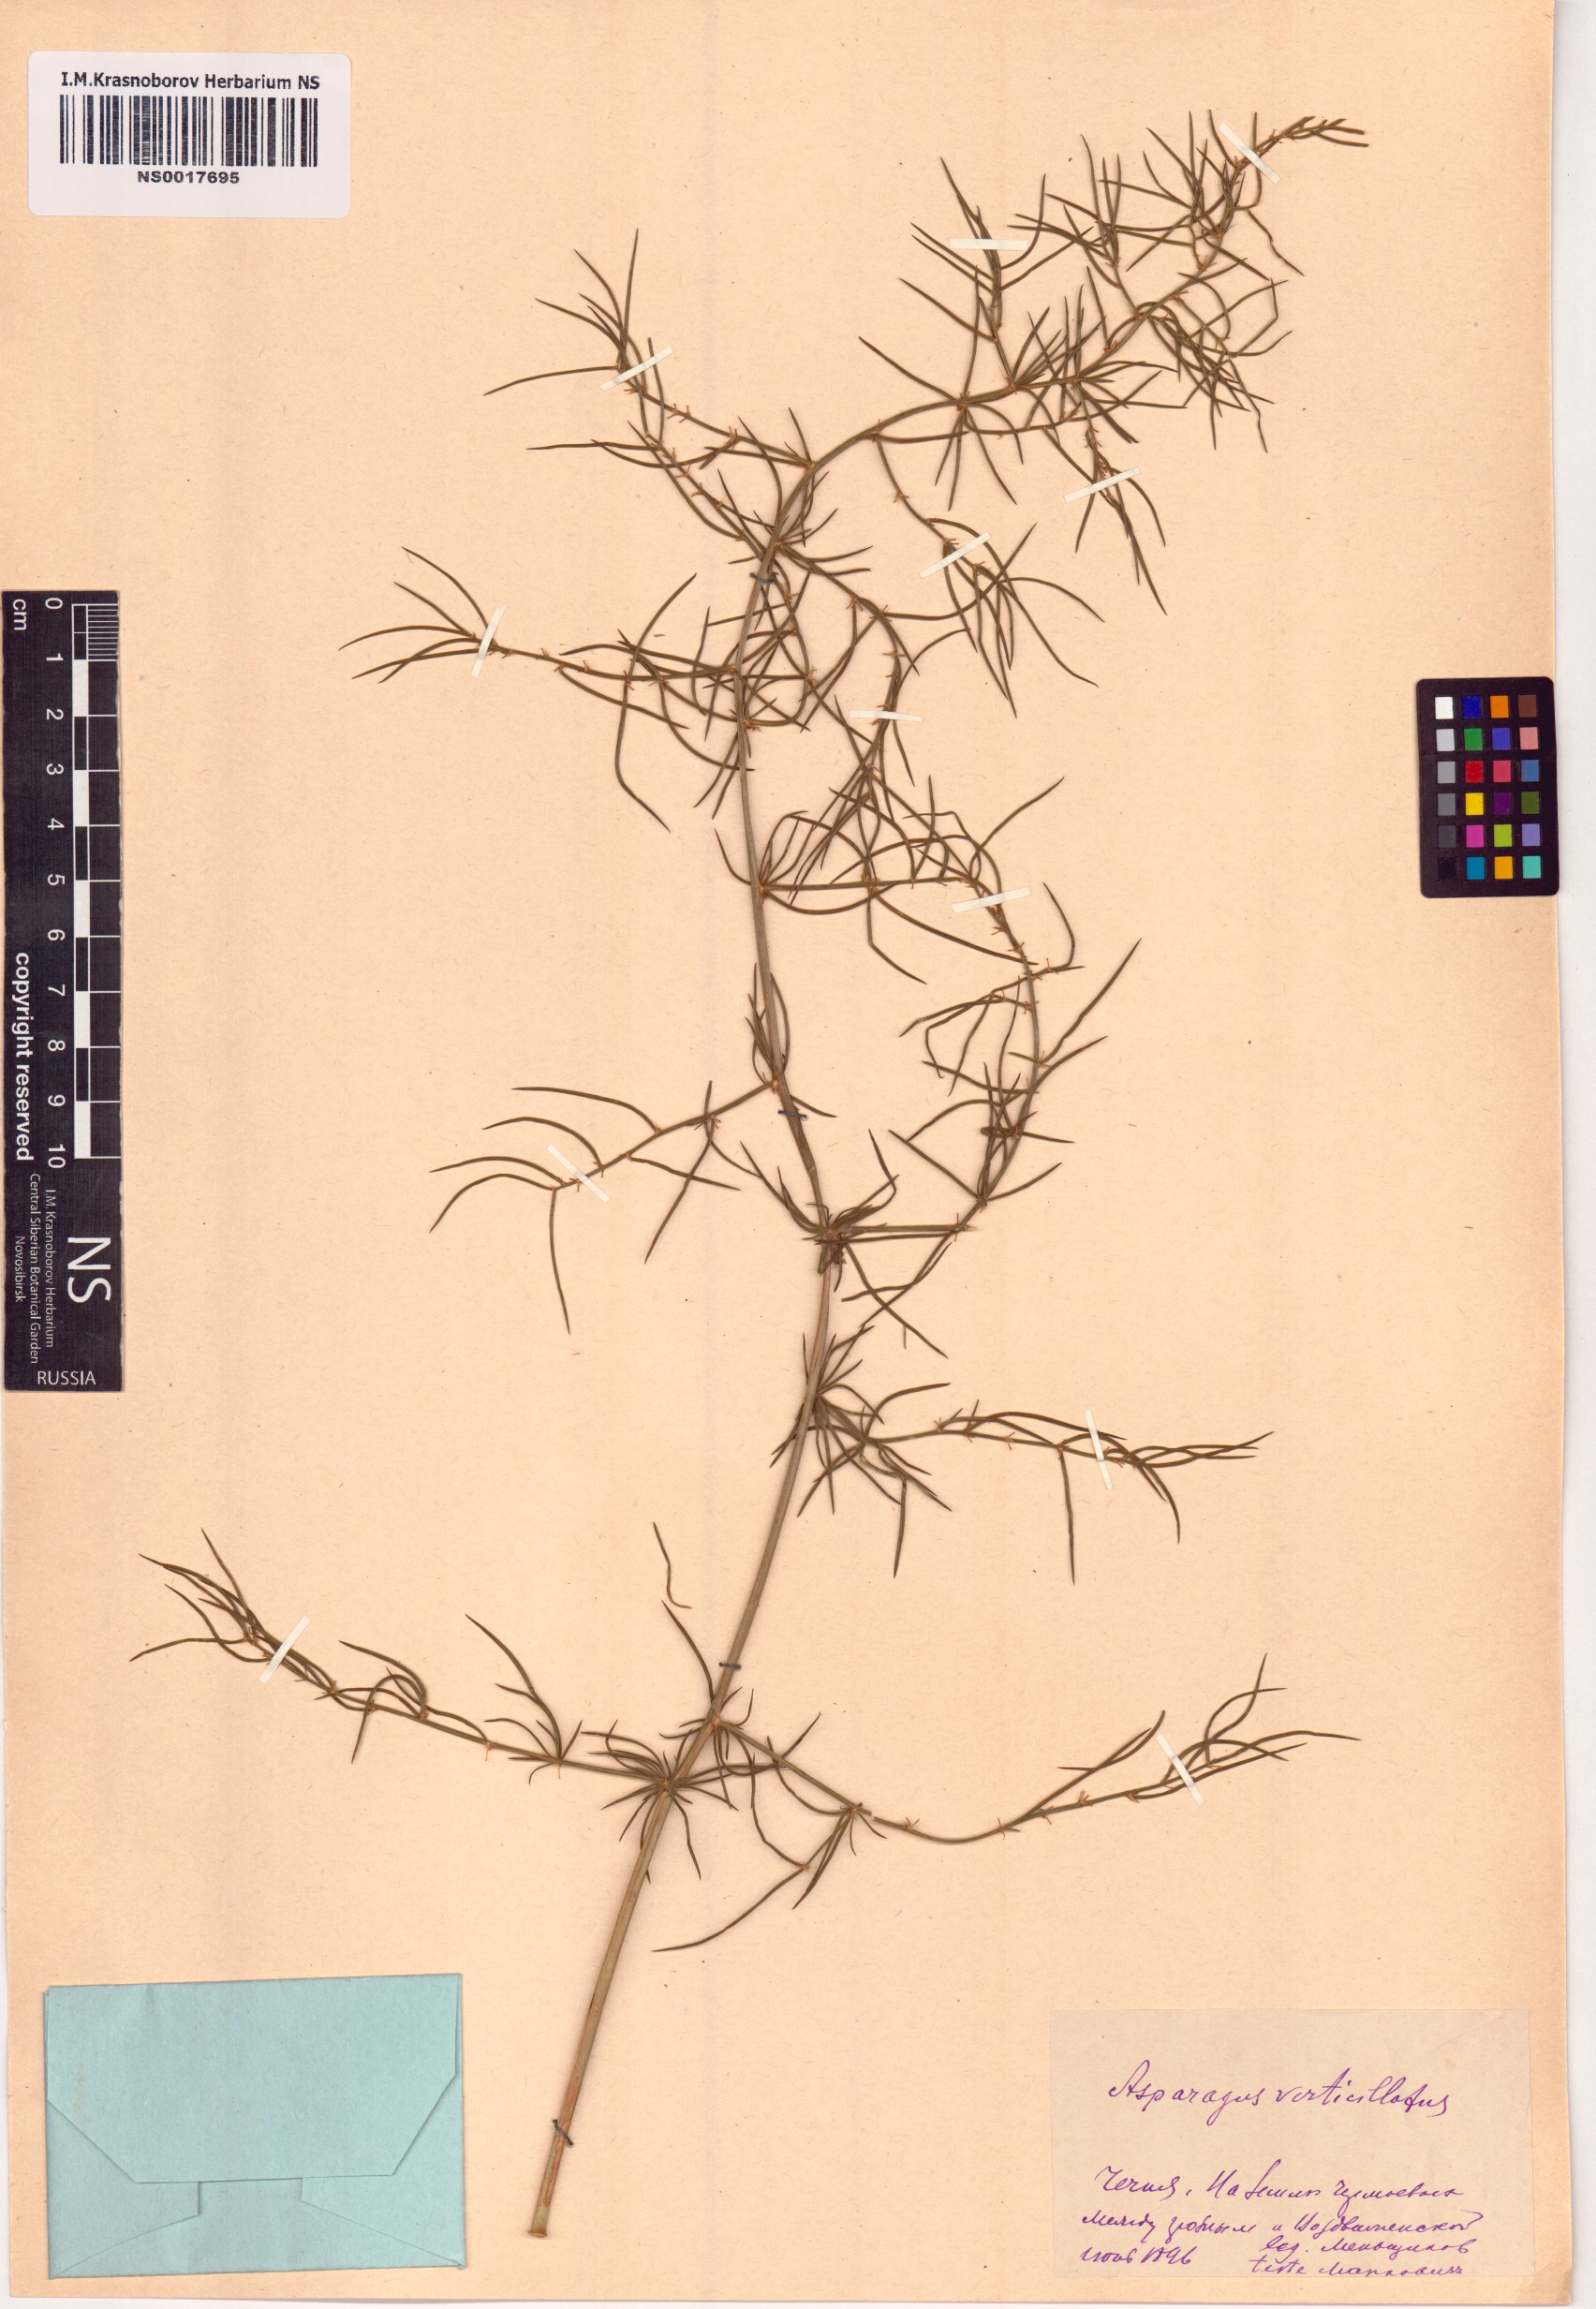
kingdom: Plantae
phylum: Tracheophyta
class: Liliopsida
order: Asparagales
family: Asparagaceae
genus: Asparagus
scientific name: Asparagus verticillatus
